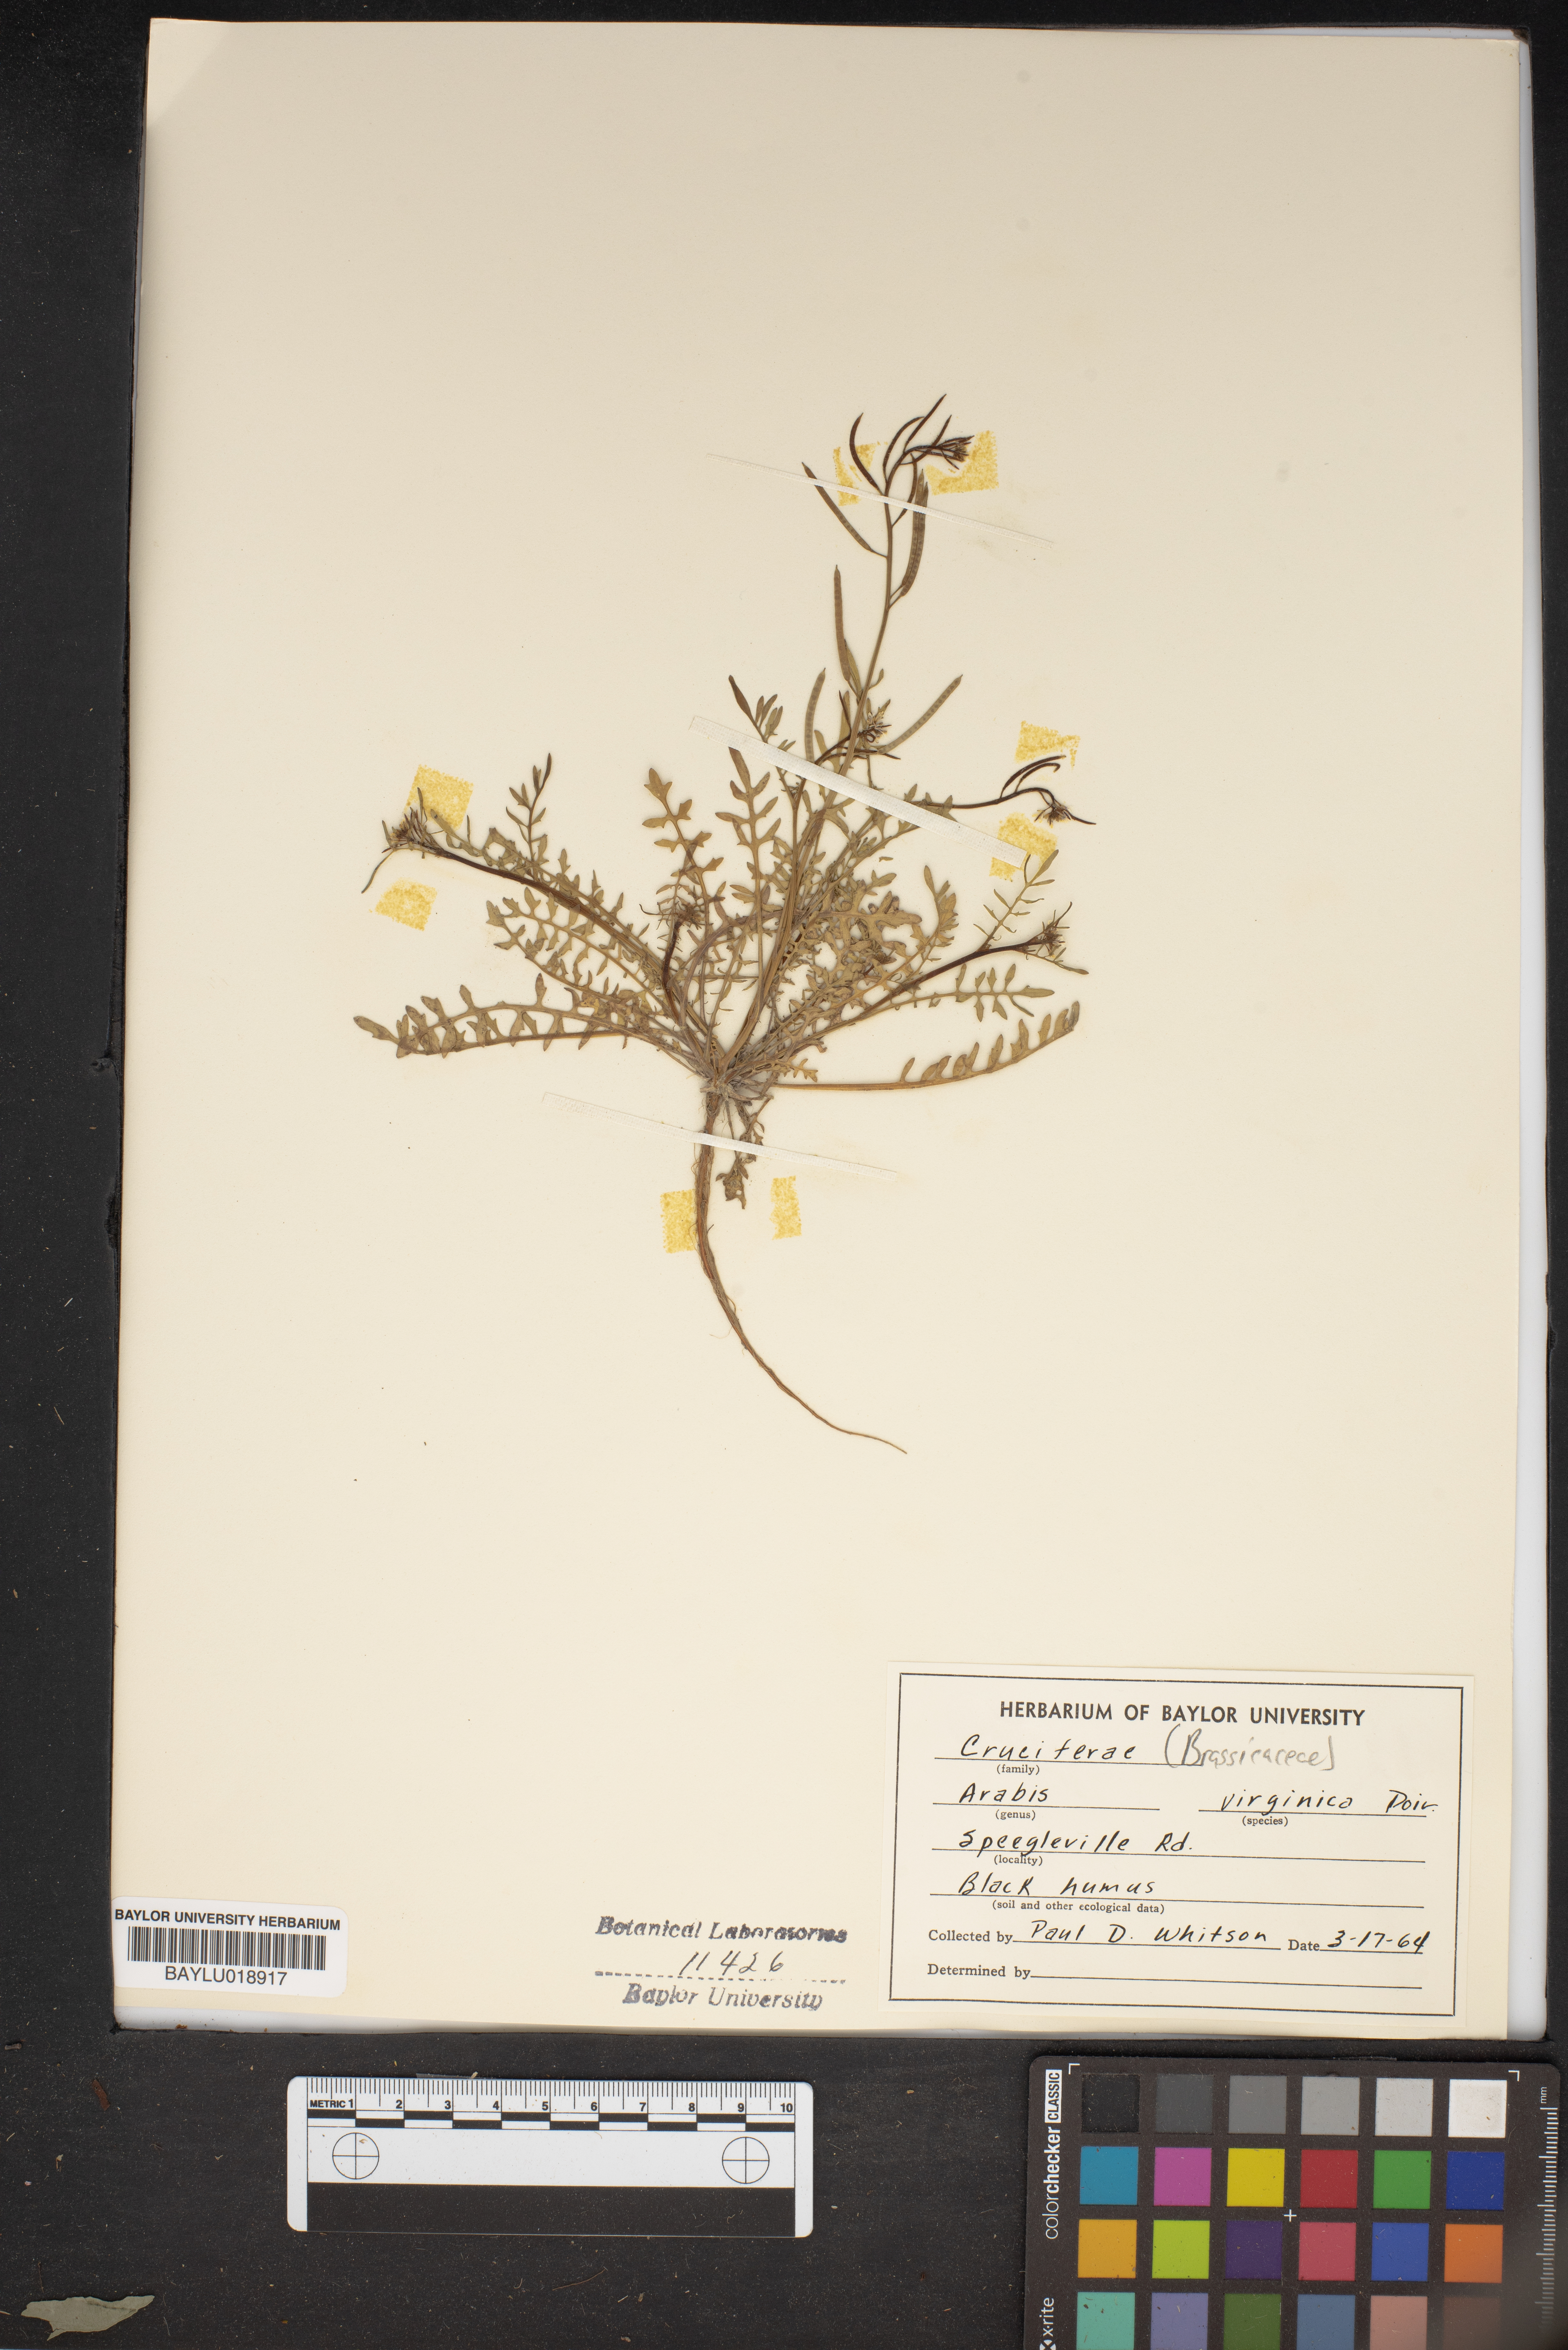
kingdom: Plantae
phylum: Tracheophyta
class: Magnoliopsida
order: Brassicales
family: Brassicaceae
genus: Planodes
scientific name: Planodes virginicum
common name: Virginia cress
